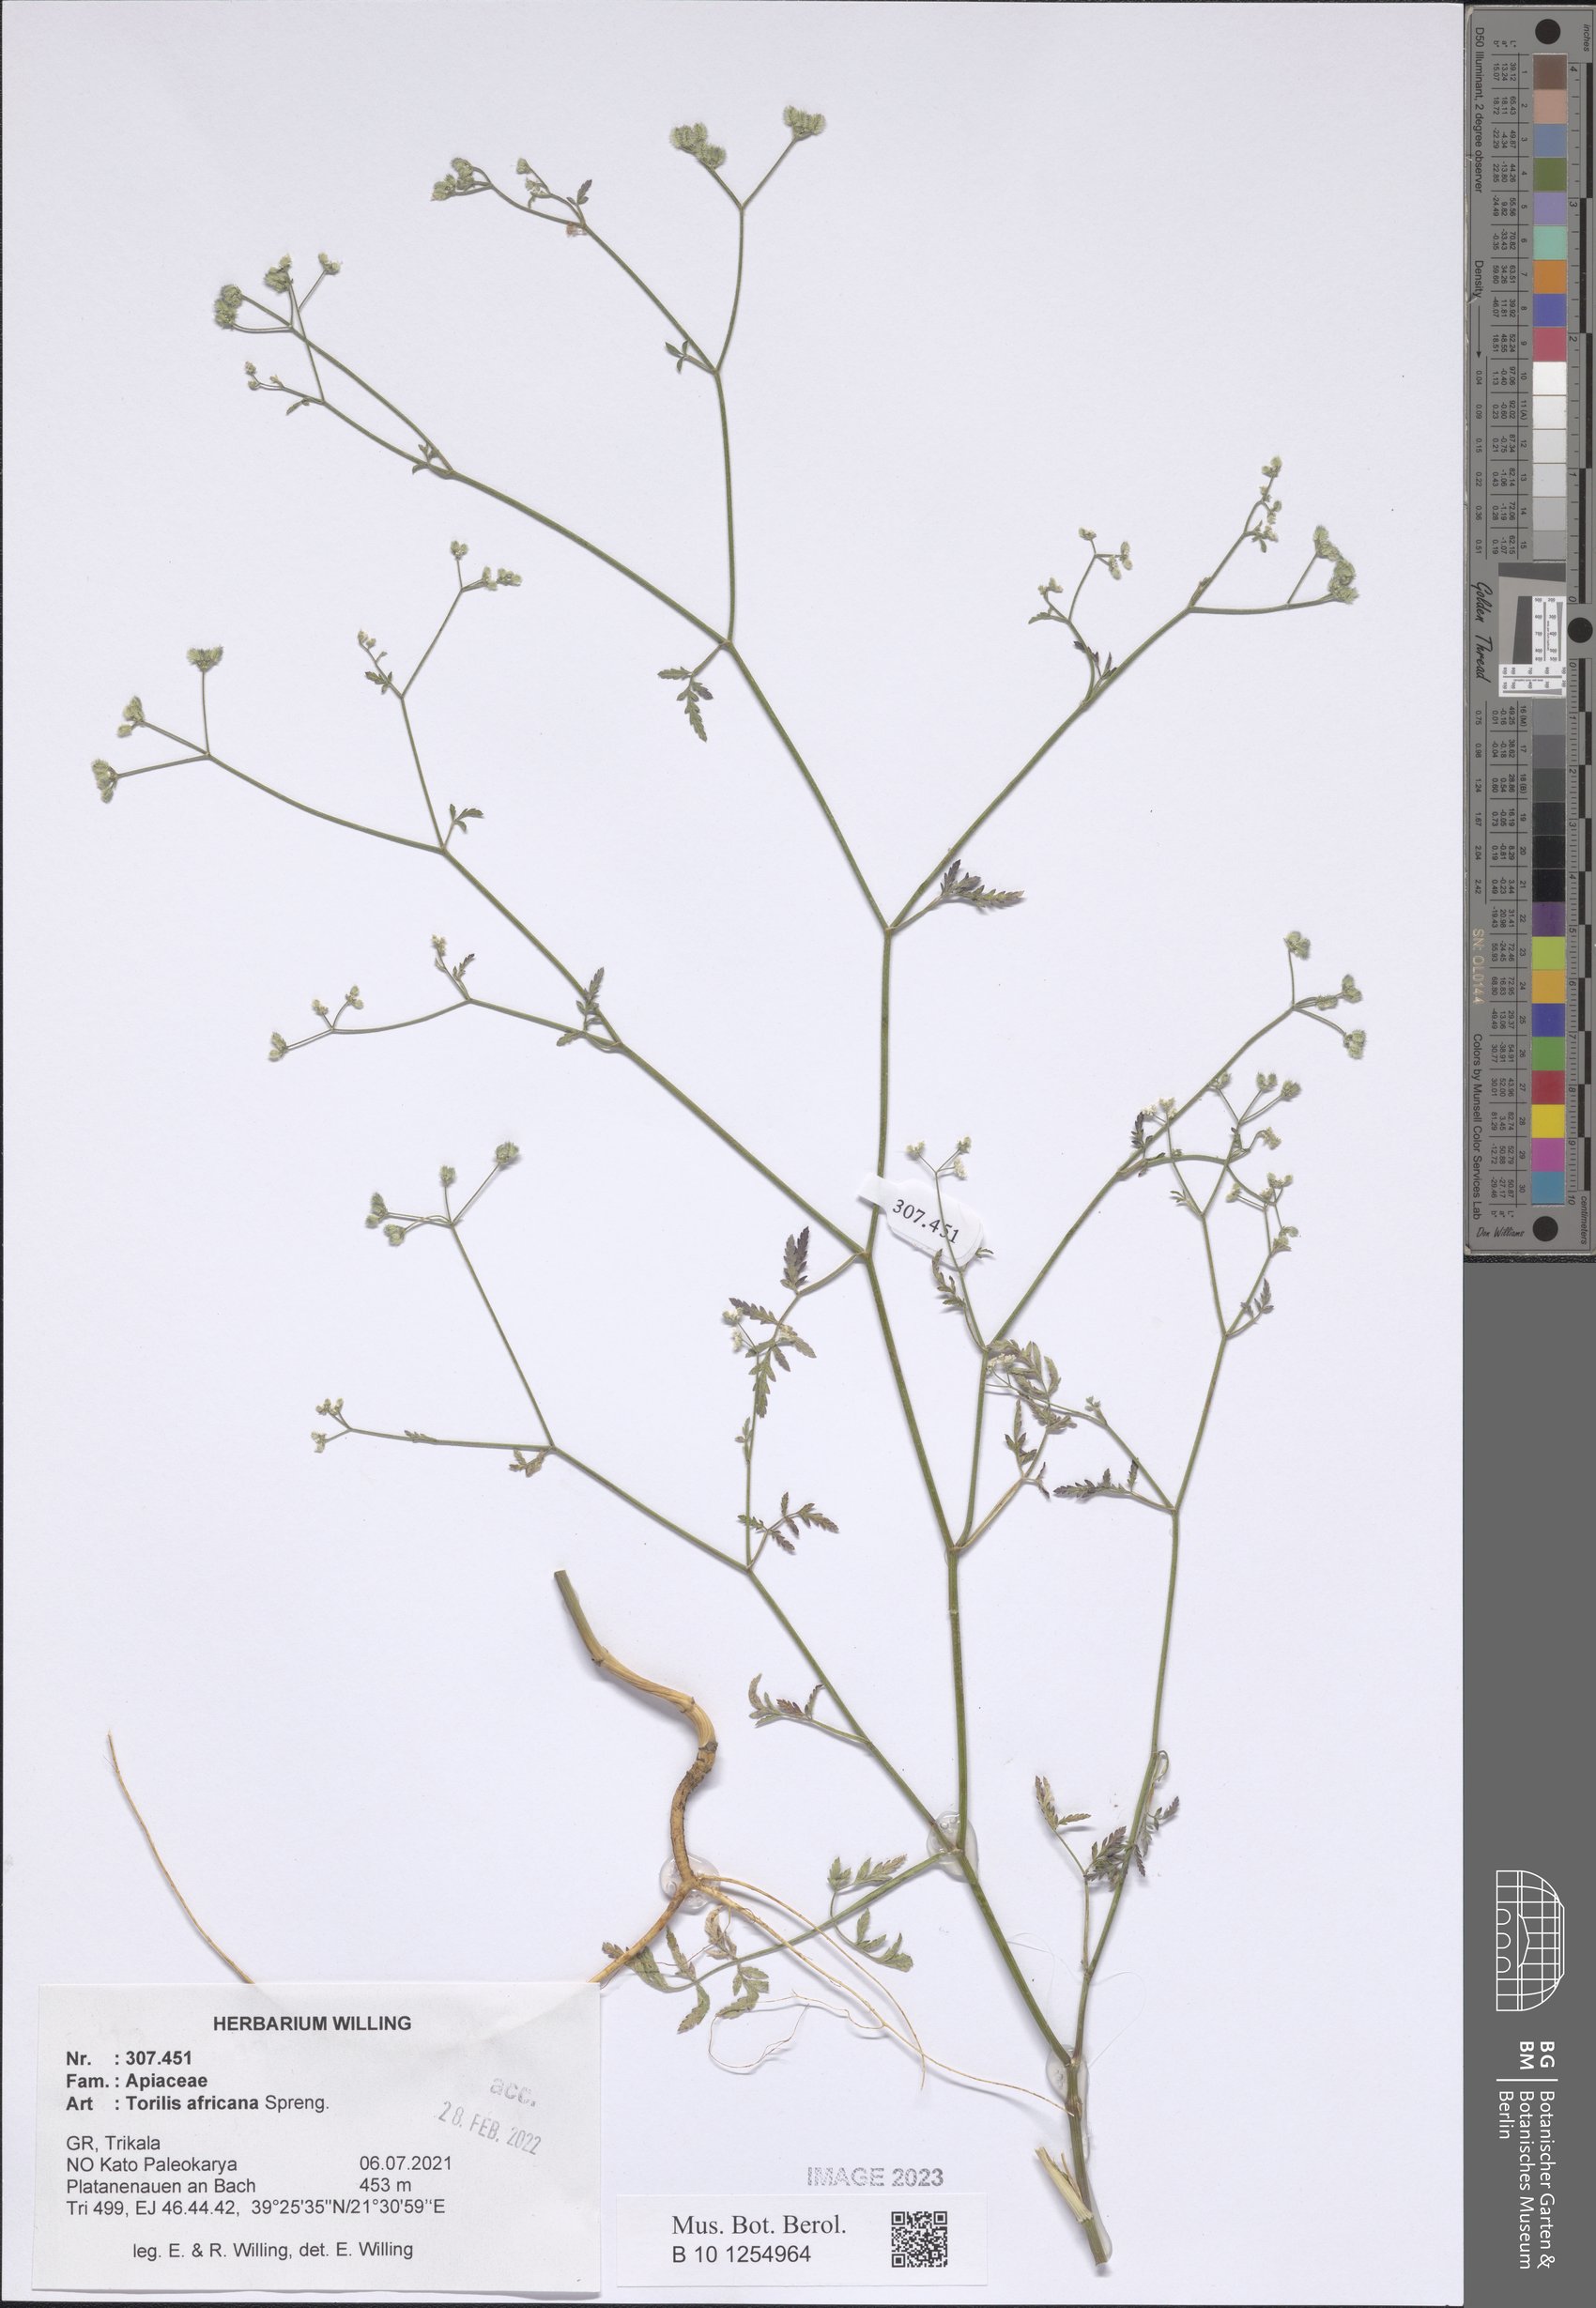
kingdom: Plantae
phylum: Tracheophyta
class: Magnoliopsida
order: Apiales
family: Apiaceae
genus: Torilis
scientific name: Torilis africana
